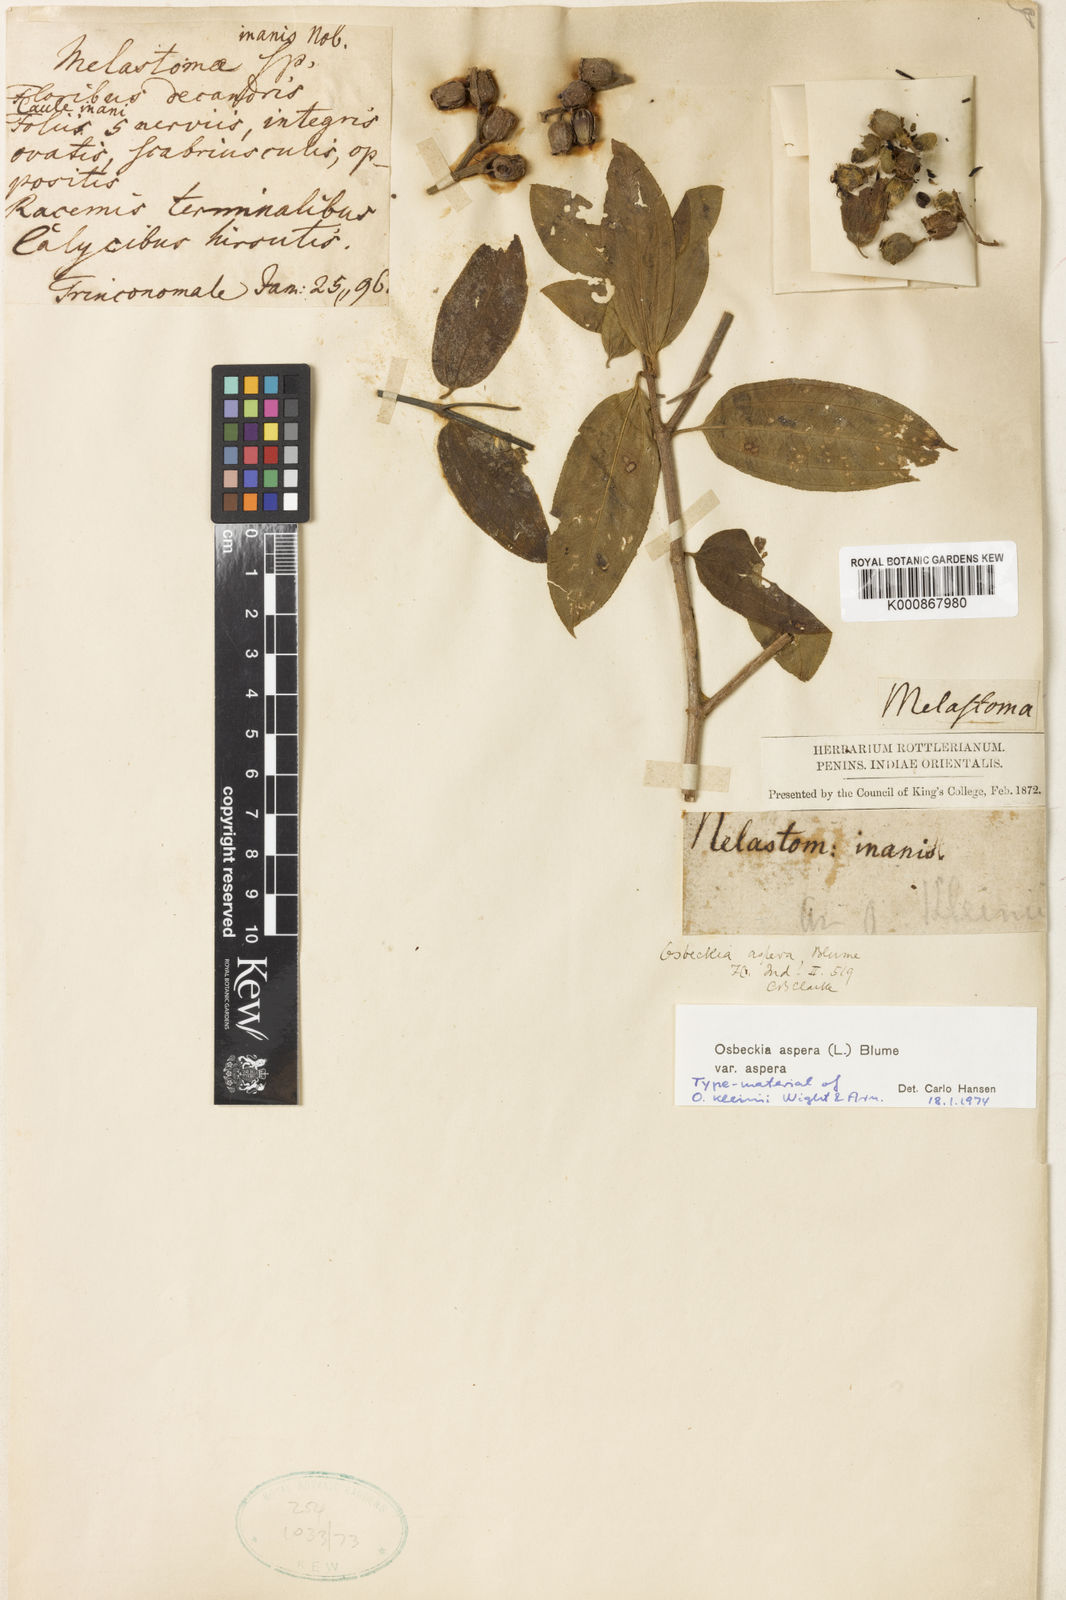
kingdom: Plantae
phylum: Tracheophyta
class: Magnoliopsida
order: Myrtales
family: Melastomataceae
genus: Osbeckia
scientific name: Osbeckia aspera
